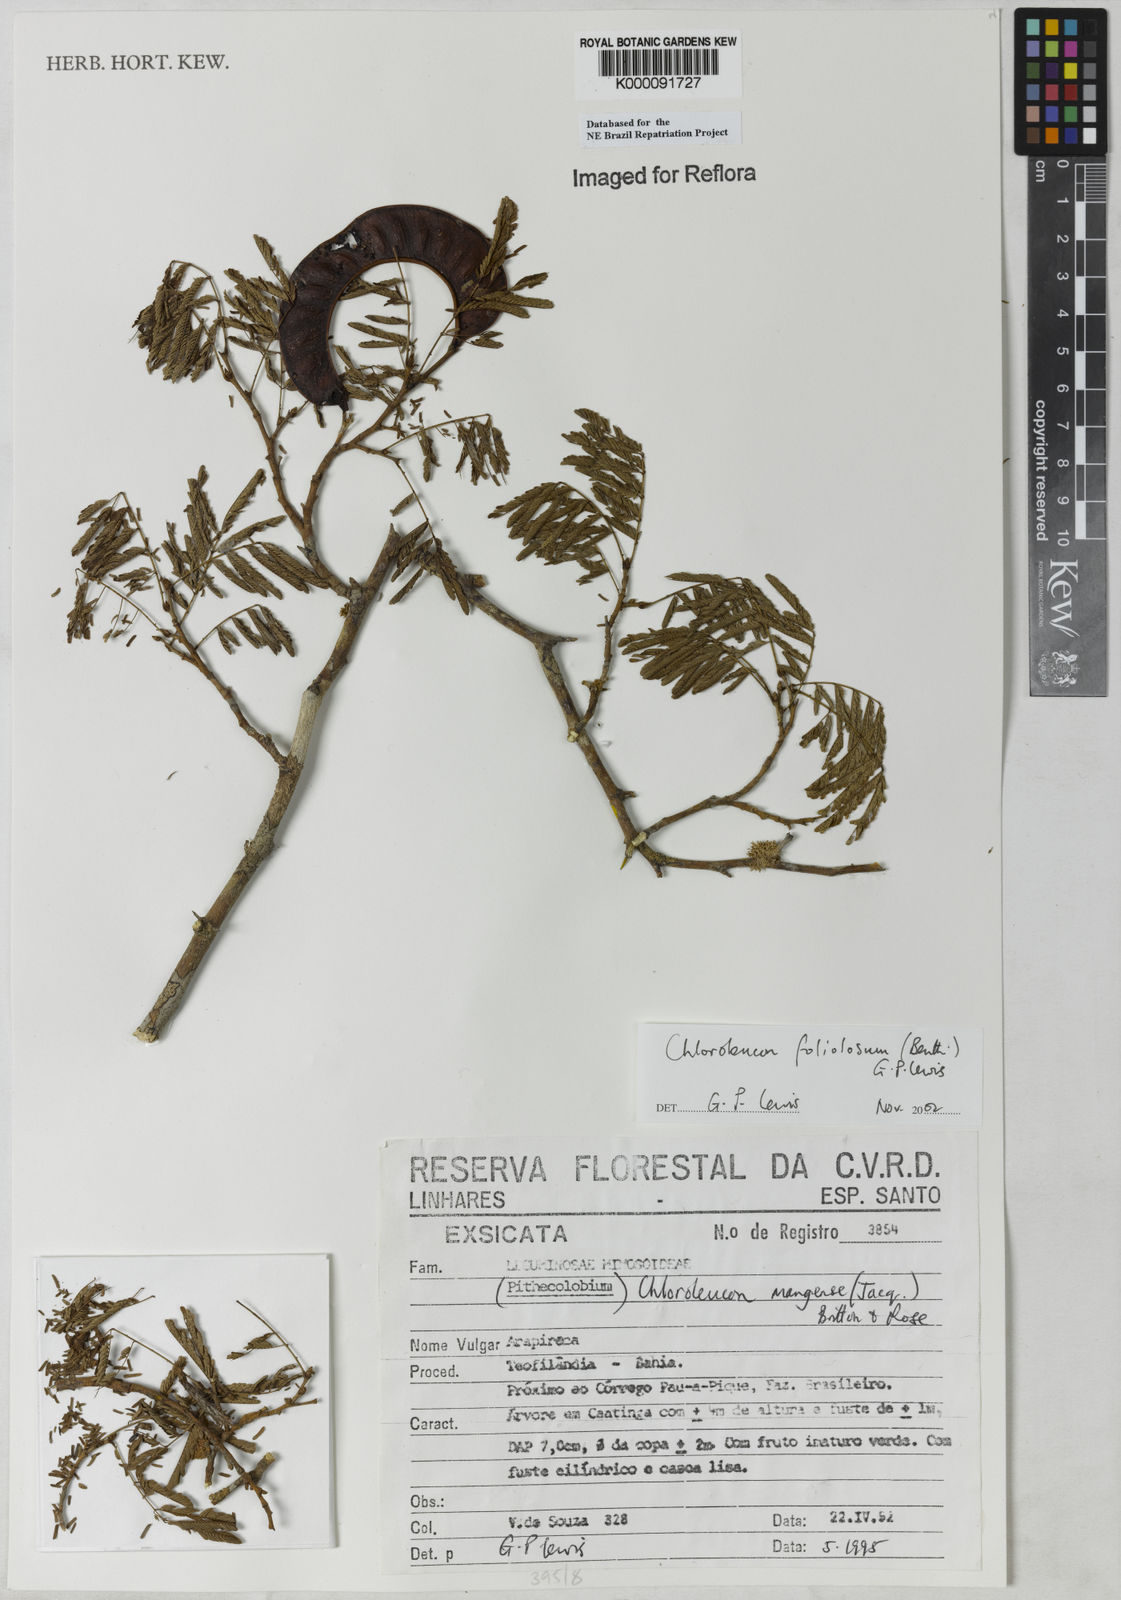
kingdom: Plantae
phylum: Tracheophyta
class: Magnoliopsida
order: Fabales
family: Fabaceae
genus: Chloroleucon
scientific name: Chloroleucon foliolosum
